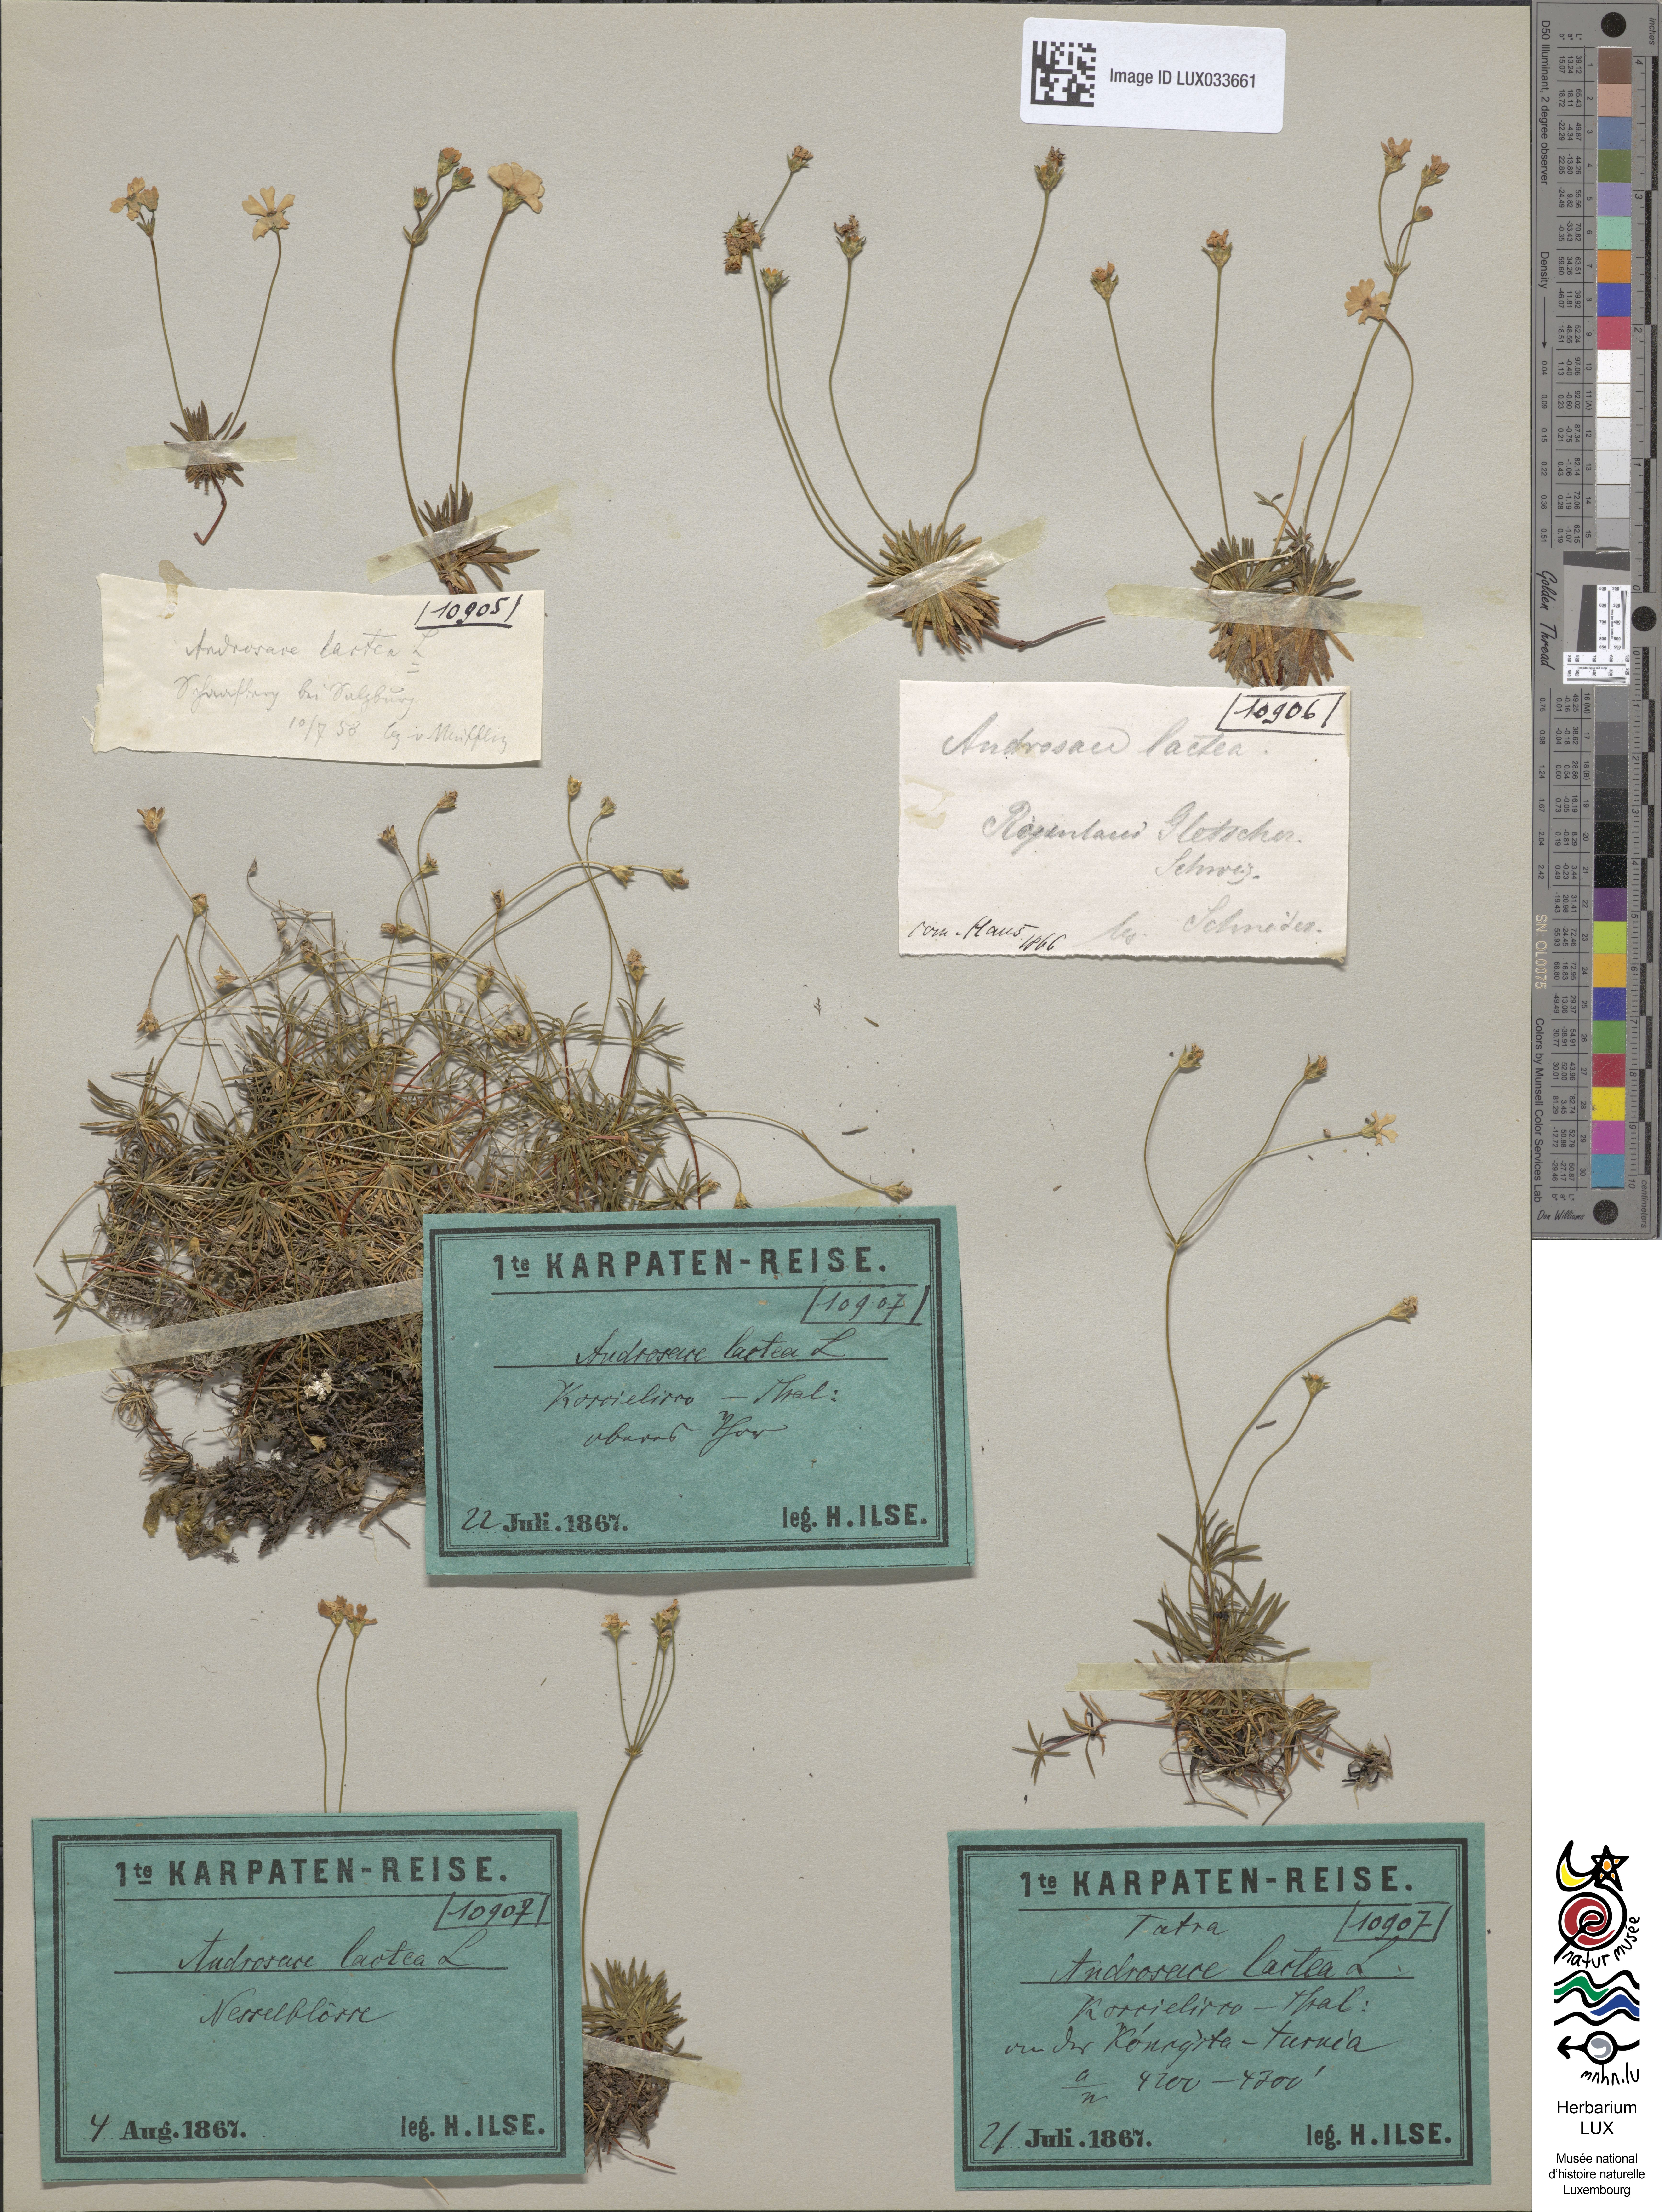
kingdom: Plantae
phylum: Tracheophyta
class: Magnoliopsida
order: Ericales
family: Primulaceae
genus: Androsace
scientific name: Androsace lactea
